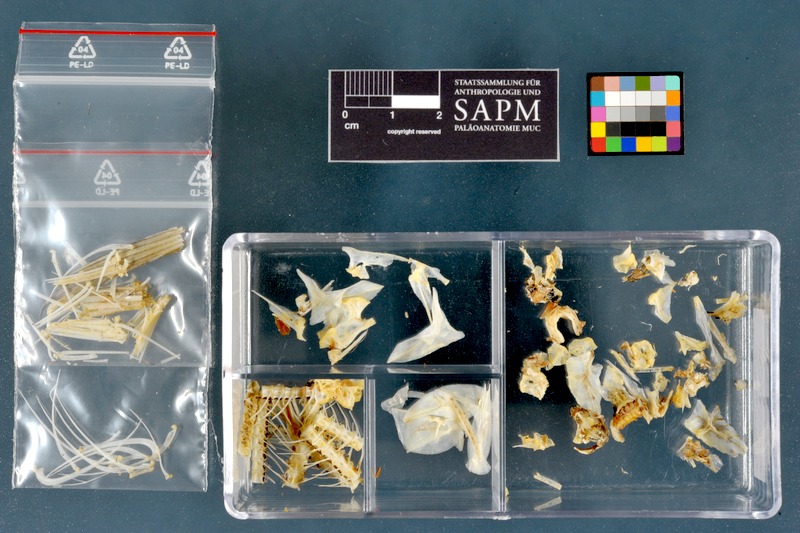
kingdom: Animalia
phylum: Chordata
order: Characiformes
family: Alestidae
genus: Alestes
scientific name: Alestes dentex
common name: Characin
